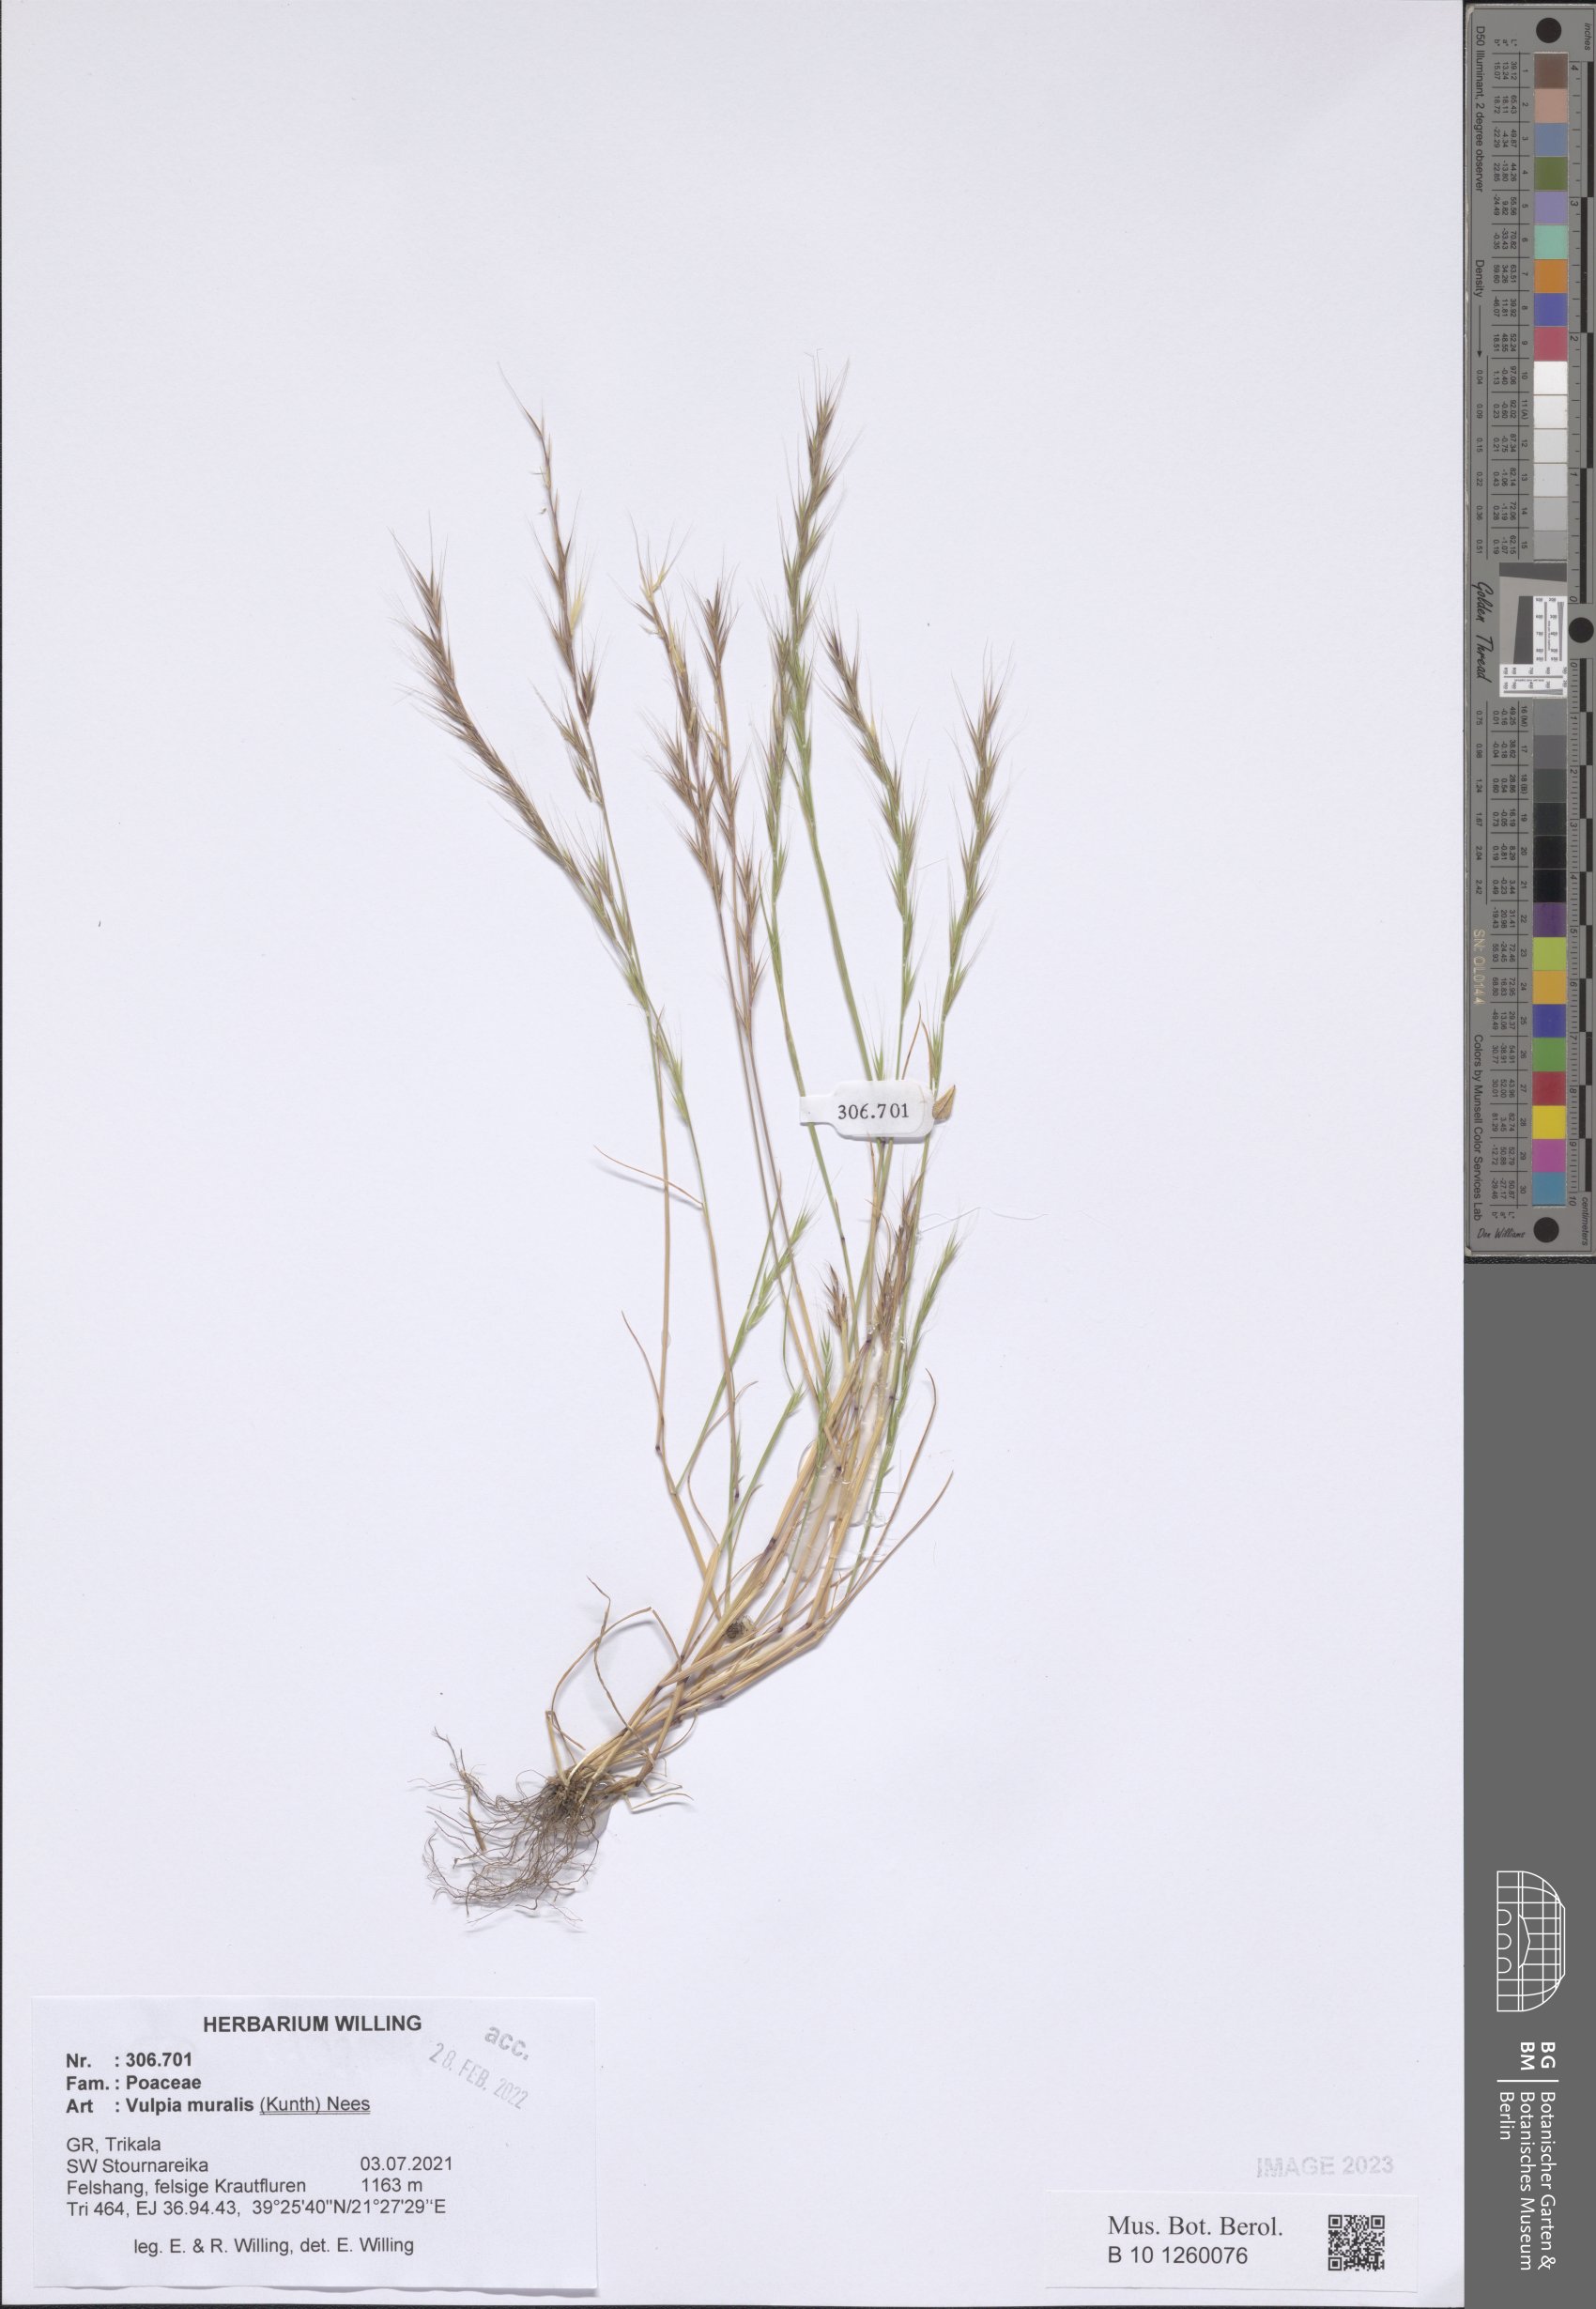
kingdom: Plantae
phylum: Tracheophyta
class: Liliopsida
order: Poales
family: Poaceae
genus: Festuca
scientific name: Festuca muralis
